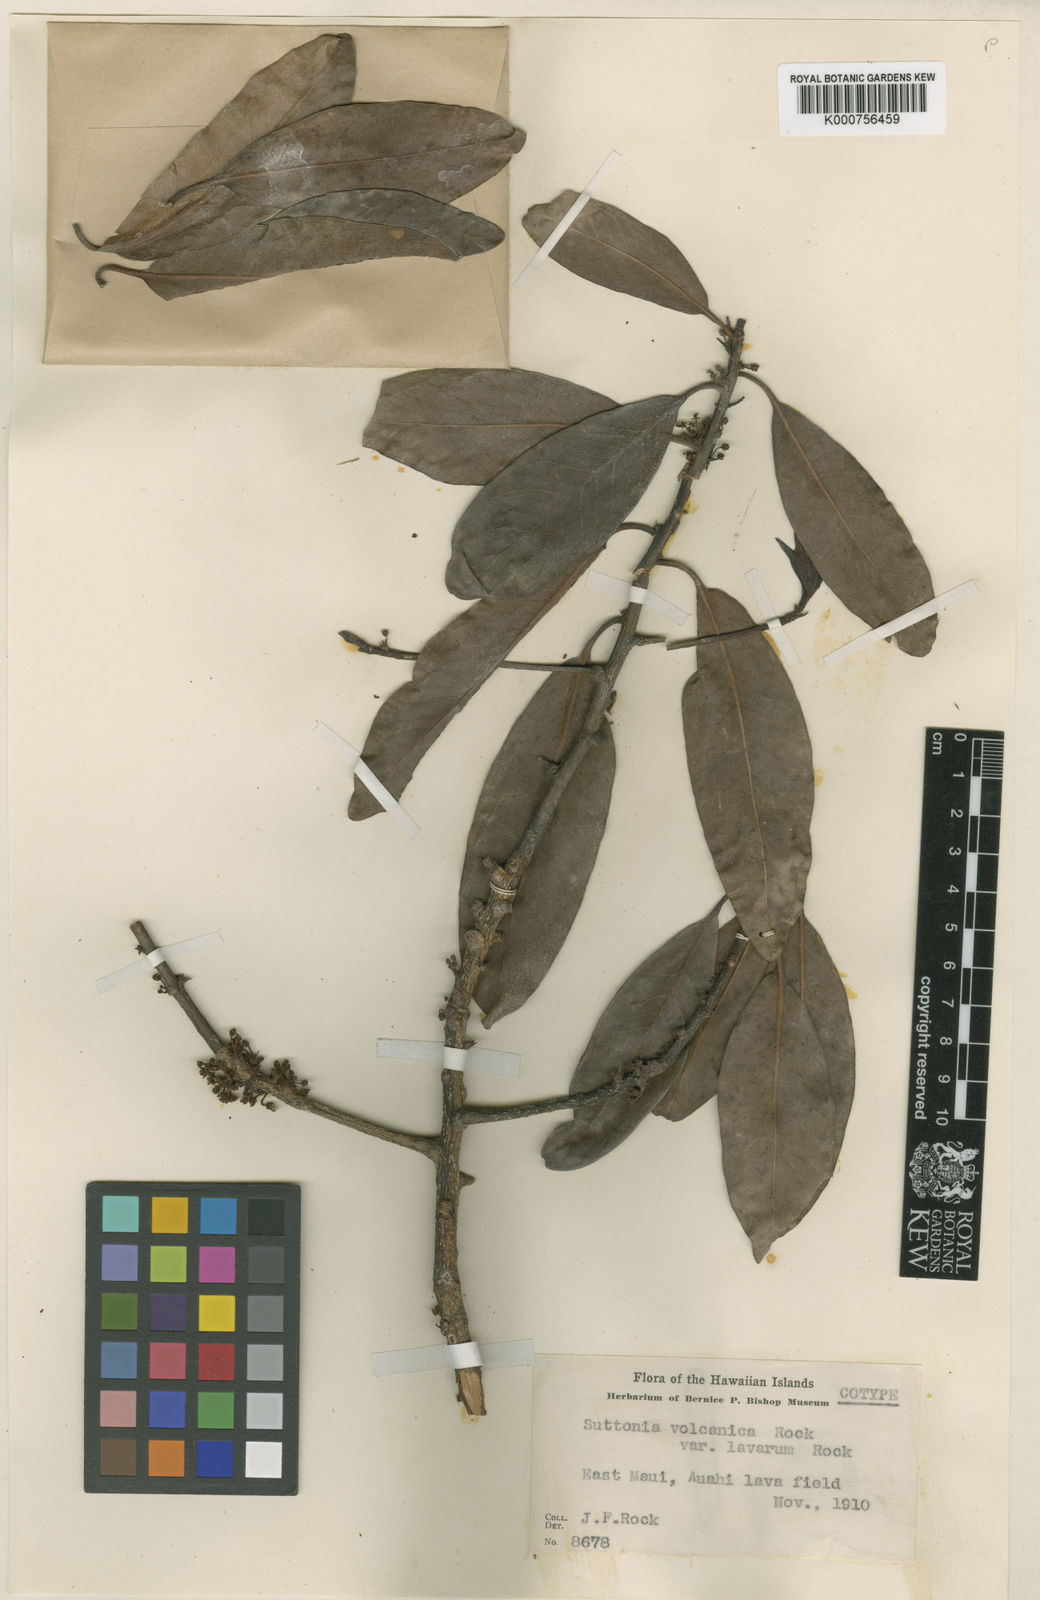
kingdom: Plantae
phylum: Tracheophyta
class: Magnoliopsida
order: Ericales
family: Primulaceae
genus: Myrsine
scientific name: Myrsine
